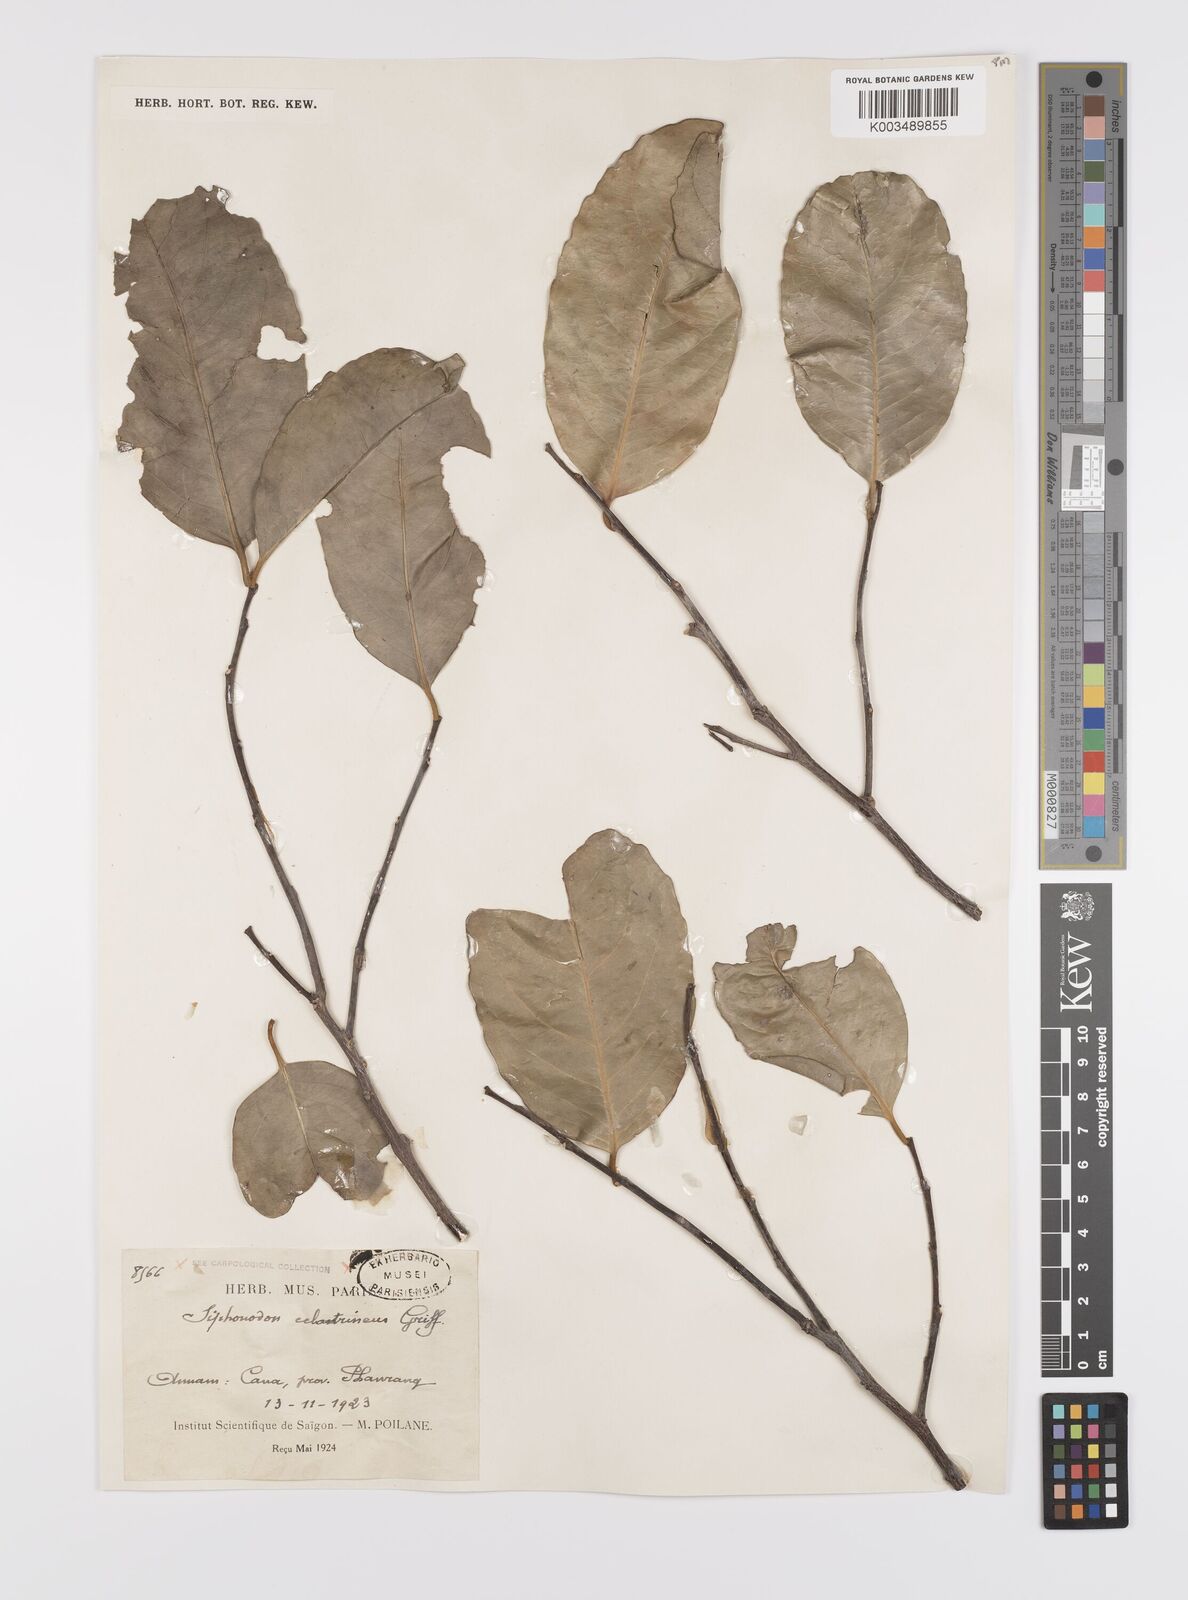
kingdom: Plantae
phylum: Tracheophyta
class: Magnoliopsida
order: Celastrales
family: Celastraceae
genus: Siphonodon
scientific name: Siphonodon celastrineus
